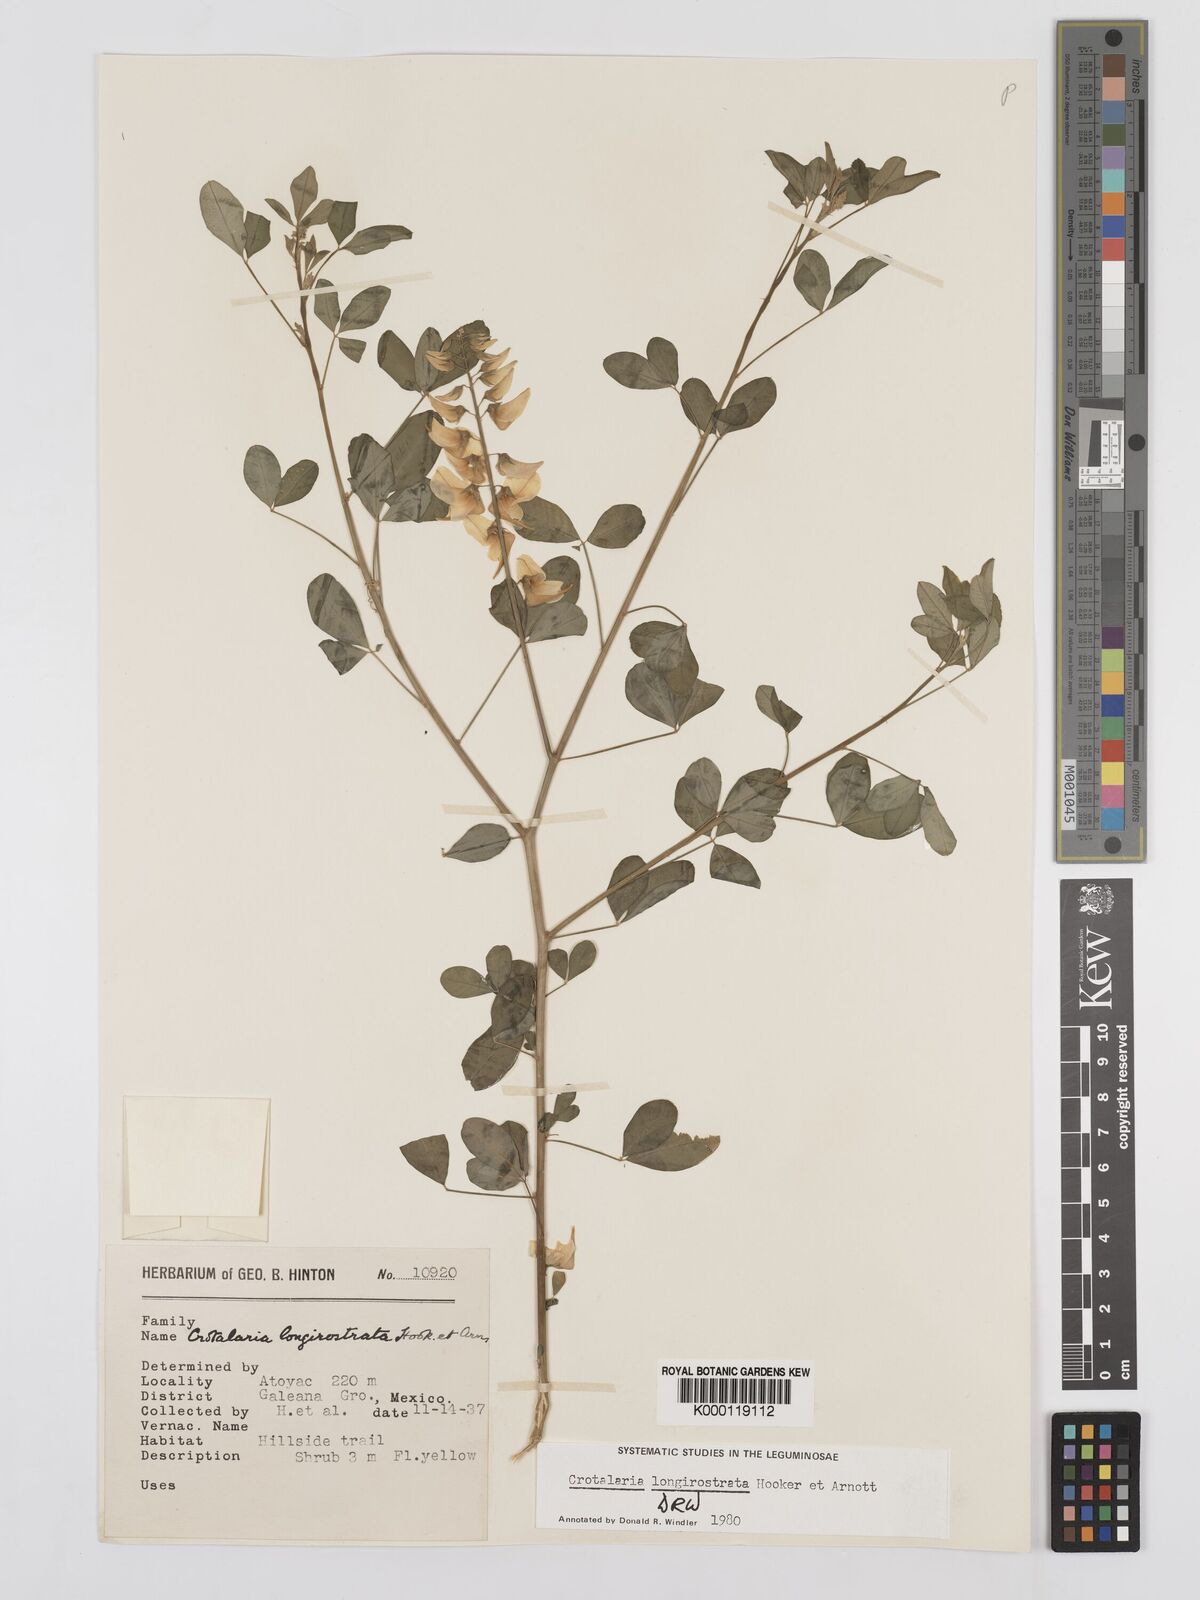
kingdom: Plantae
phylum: Tracheophyta
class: Magnoliopsida
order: Fabales
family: Fabaceae
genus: Crotalaria
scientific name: Crotalaria longirostrata
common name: Longbeak rattlebox
